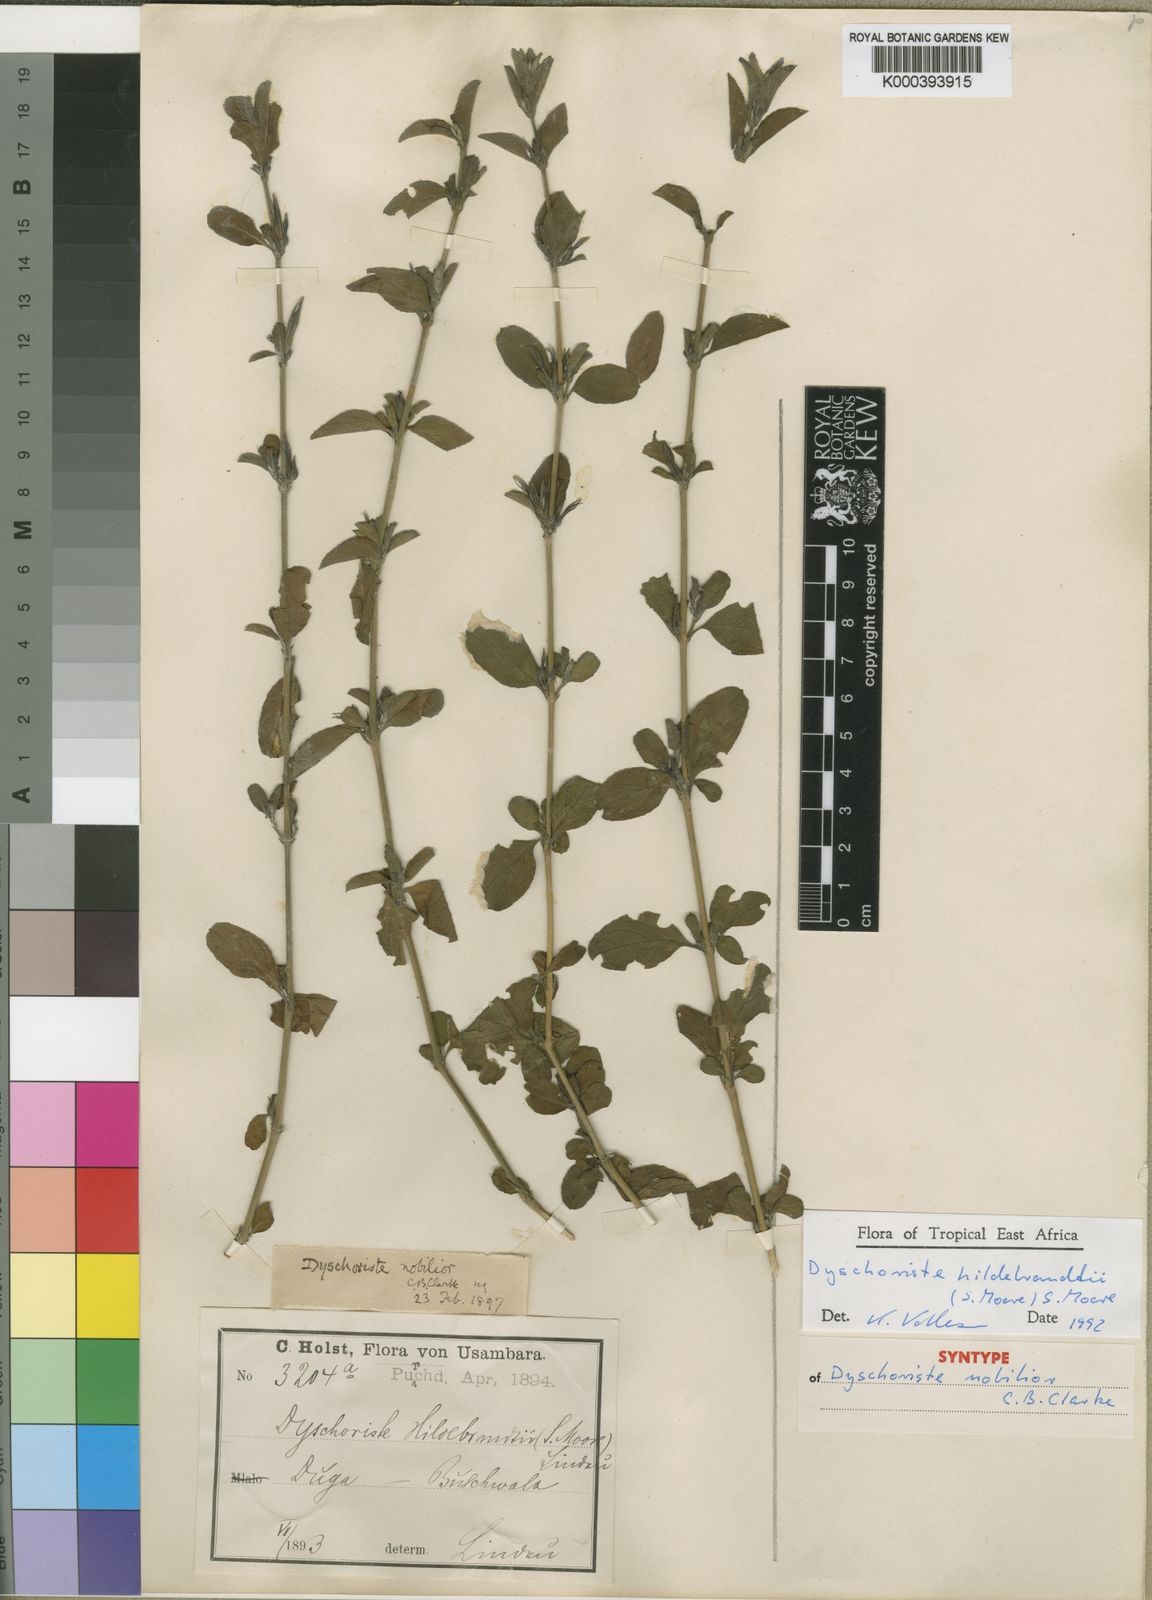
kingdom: Plantae
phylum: Tracheophyta
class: Magnoliopsida
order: Lamiales
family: Acanthaceae
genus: Dyschoriste
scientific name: Dyschoriste
